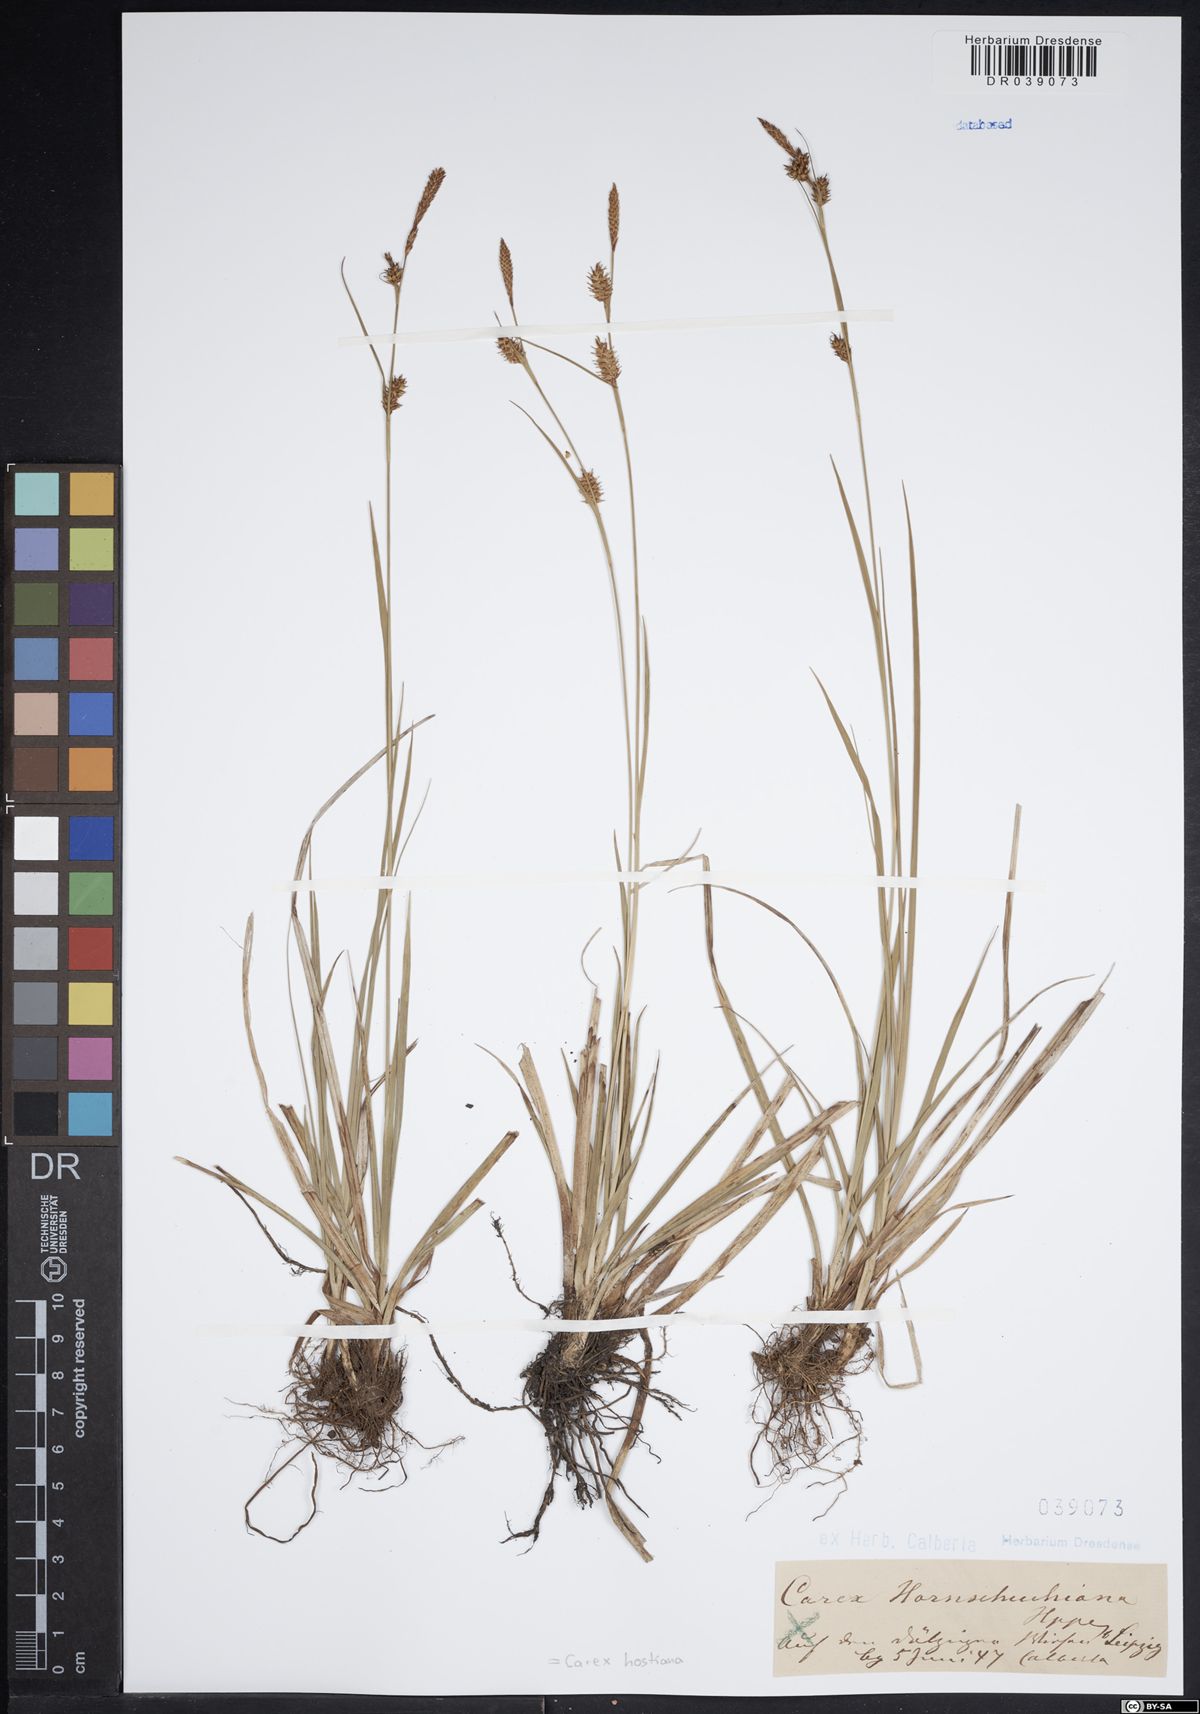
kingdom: Plantae
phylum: Tracheophyta
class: Liliopsida
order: Poales
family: Cyperaceae
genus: Carex
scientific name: Carex hostiana
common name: Tawny sedge
